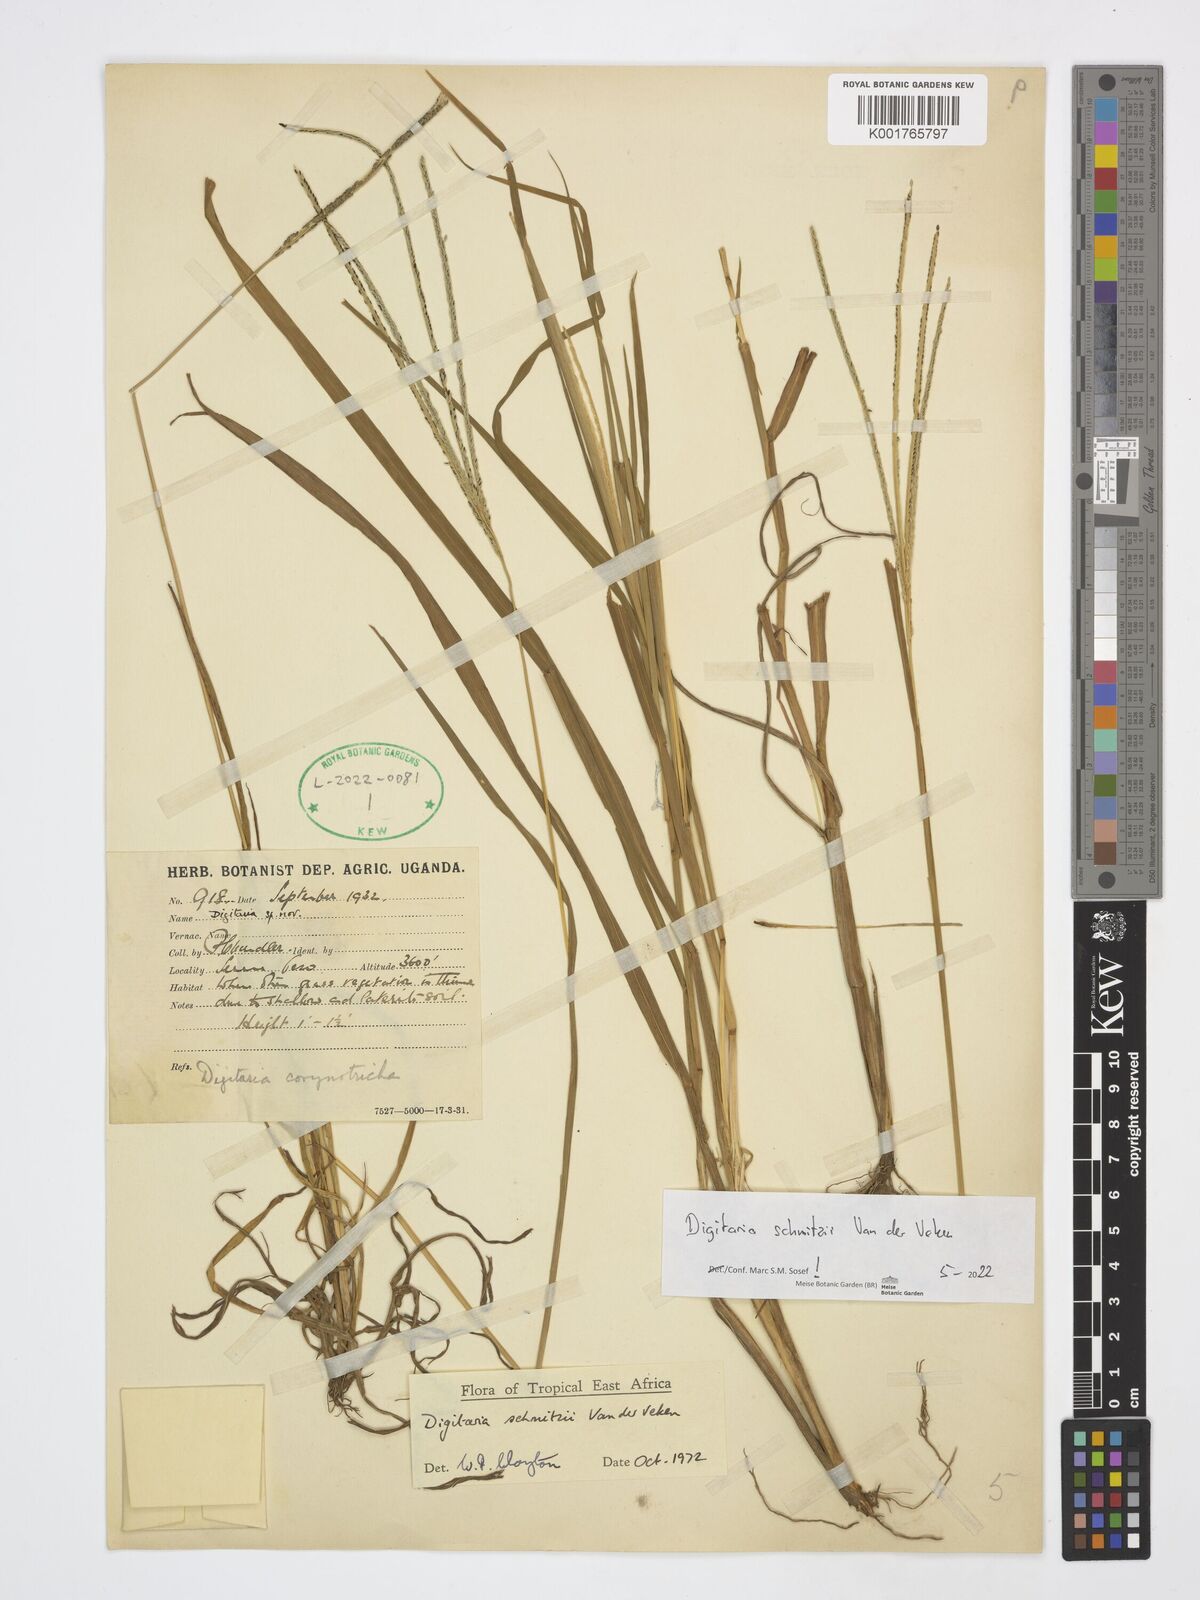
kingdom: Plantae
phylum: Tracheophyta
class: Liliopsida
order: Poales
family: Poaceae
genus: Digitaria
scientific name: Digitaria schmitzii
